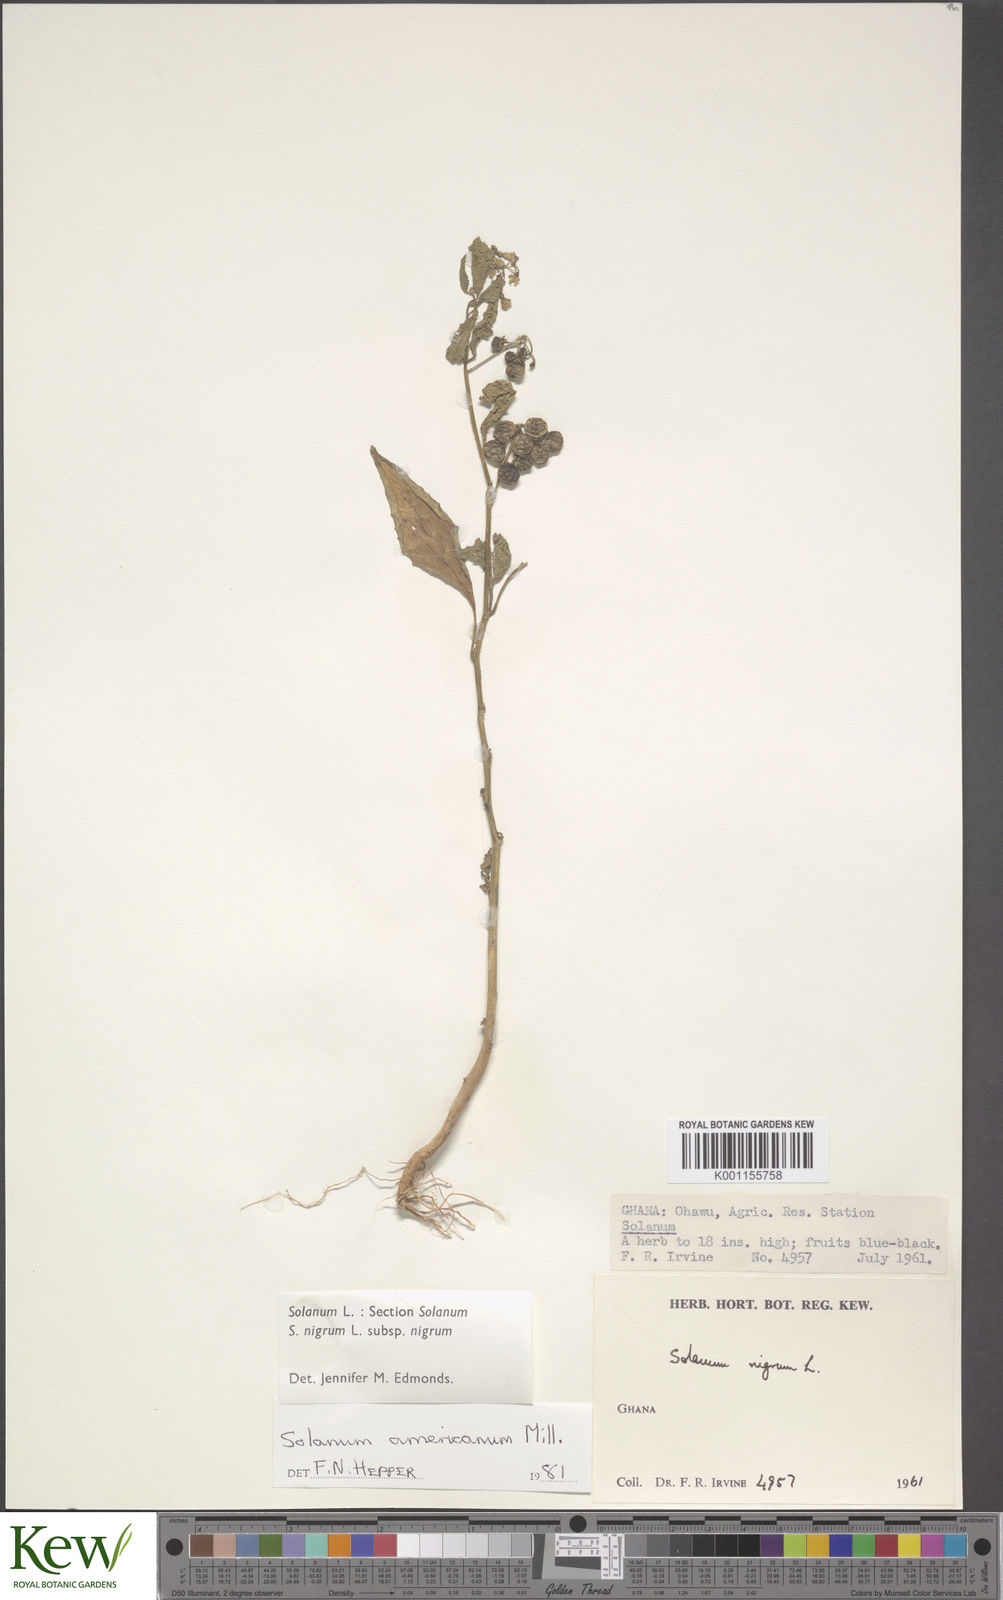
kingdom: Plantae
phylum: Tracheophyta
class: Magnoliopsida
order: Solanales
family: Solanaceae
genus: Solanum
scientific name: Solanum tarderemotum
